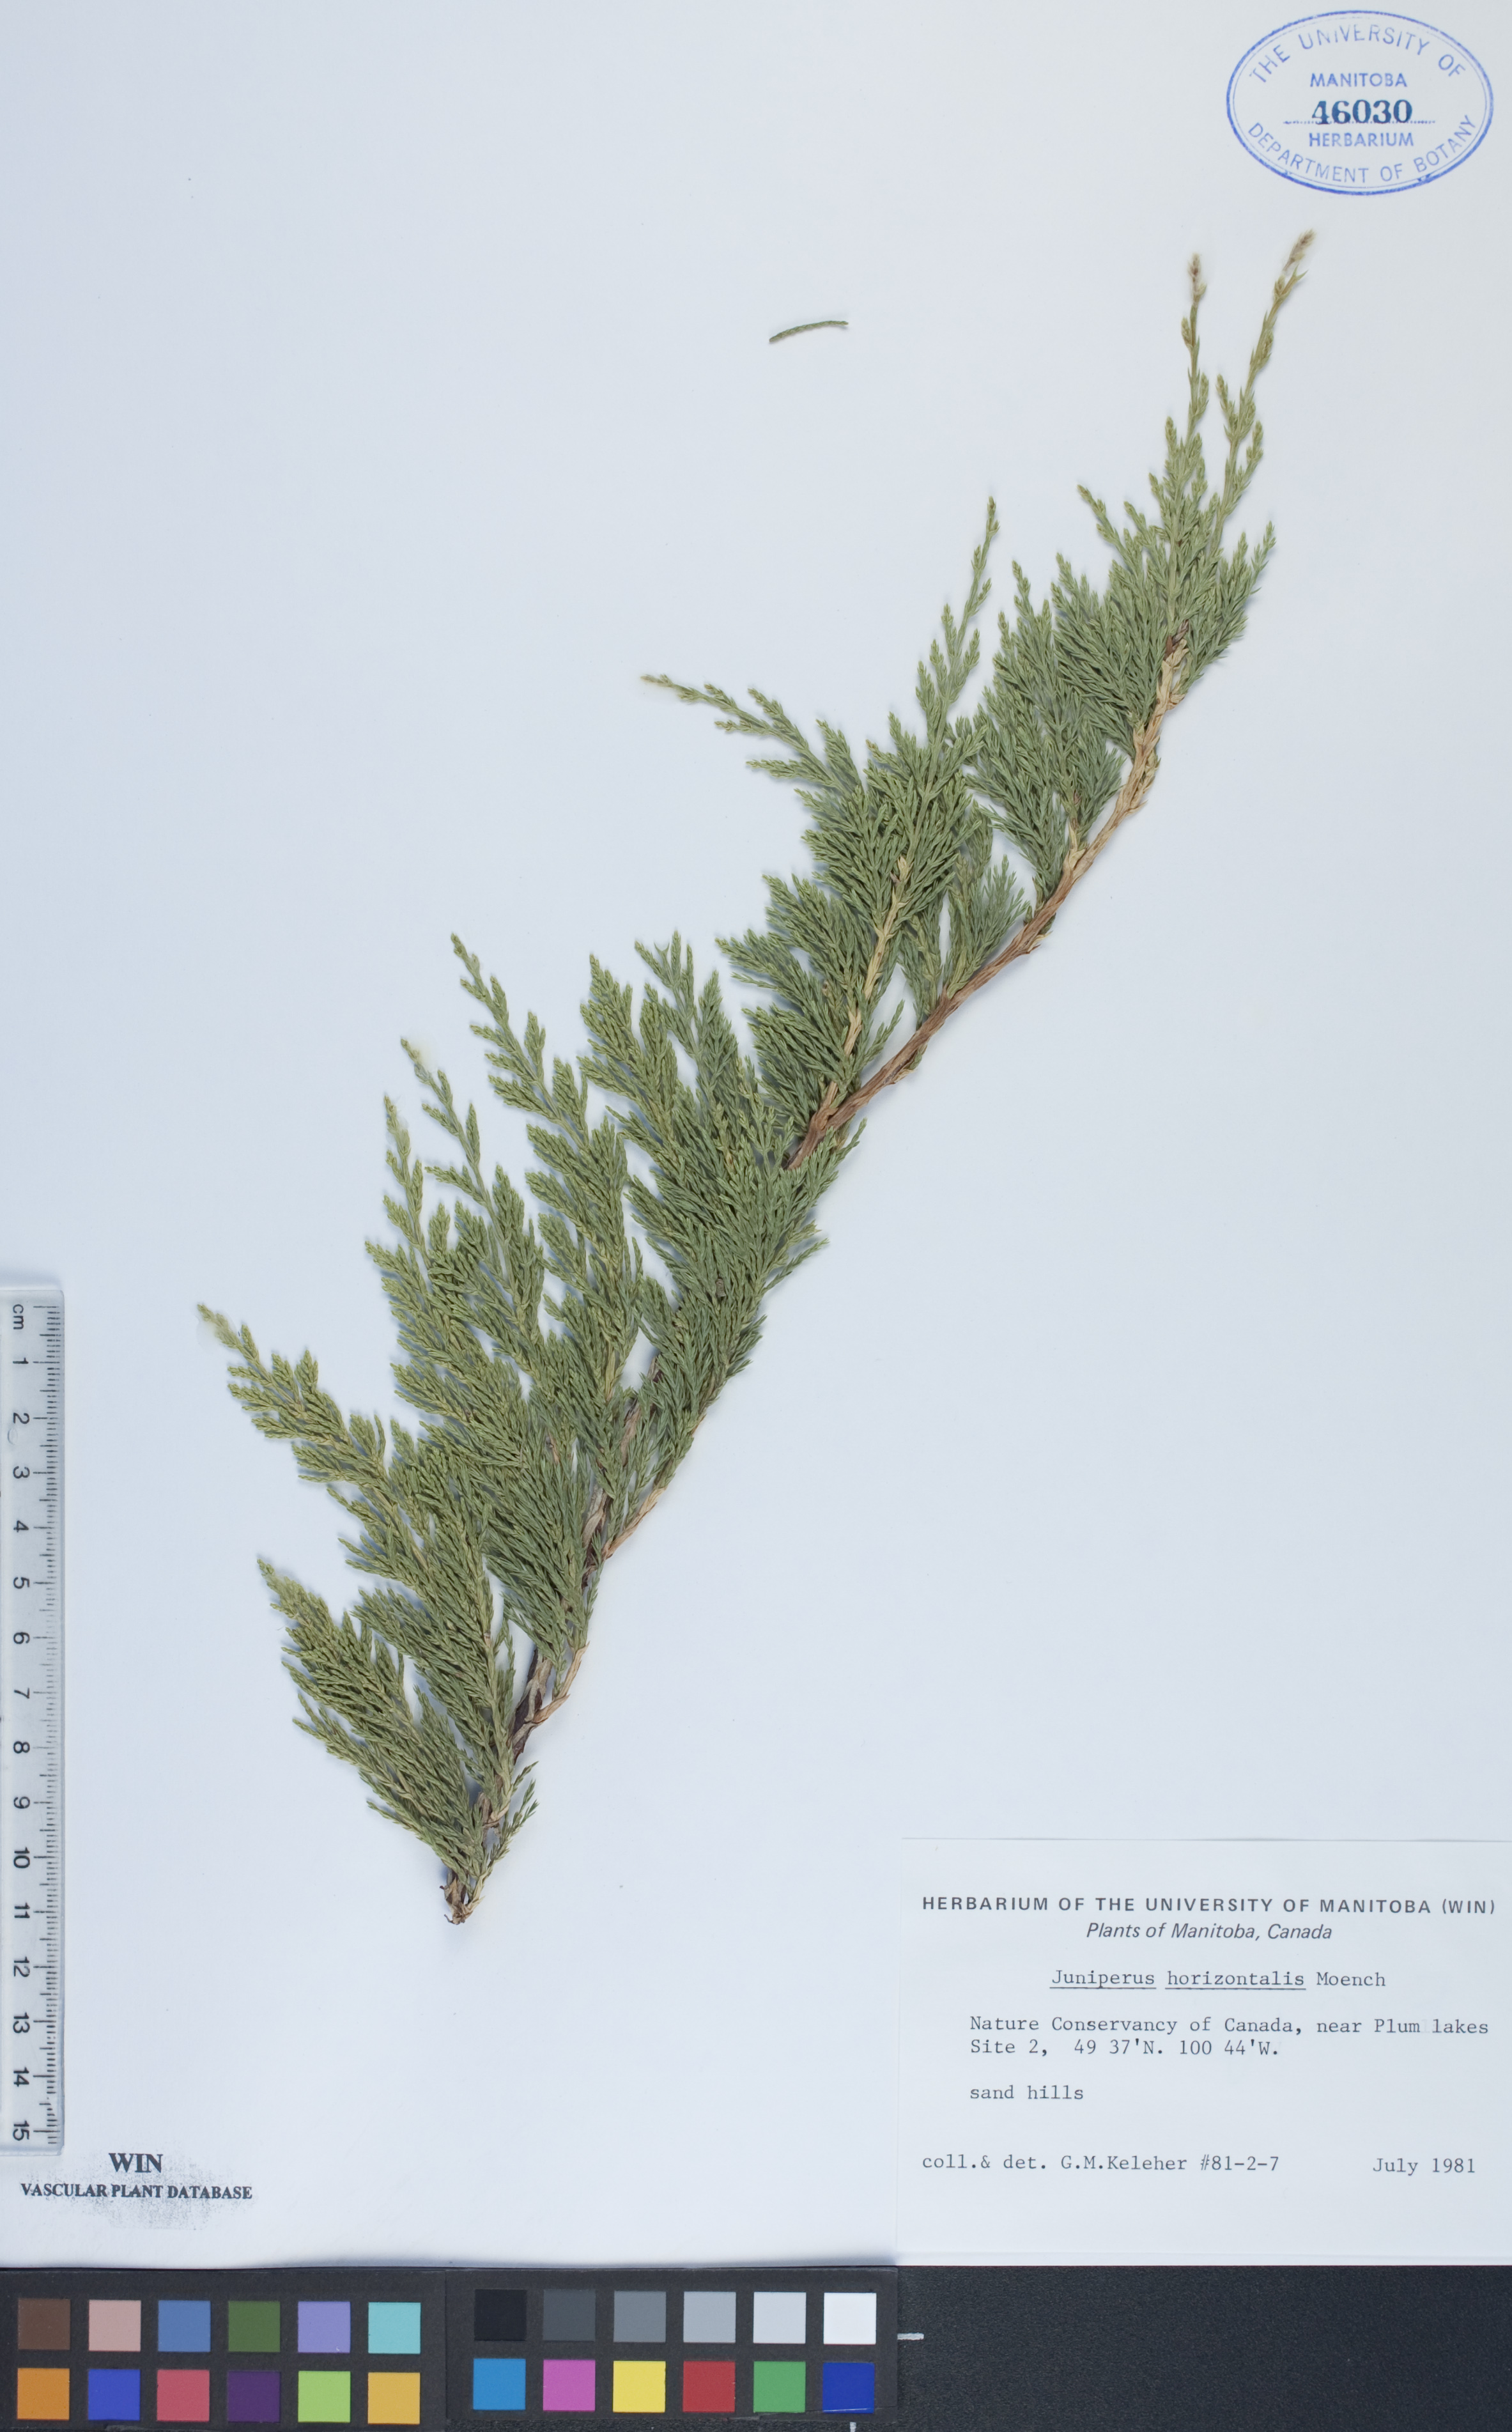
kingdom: Plantae
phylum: Tracheophyta
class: Pinopsida
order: Pinales
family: Cupressaceae
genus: Juniperus
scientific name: Juniperus horizontalis
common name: Creeping juniper
